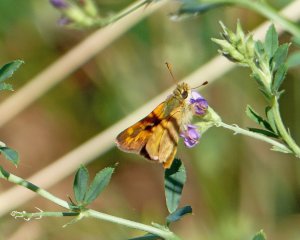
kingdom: Animalia
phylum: Arthropoda
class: Insecta
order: Lepidoptera
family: Hesperiidae
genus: Ochlodes
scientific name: Ochlodes sylvanoides
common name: Woodland Skipper
